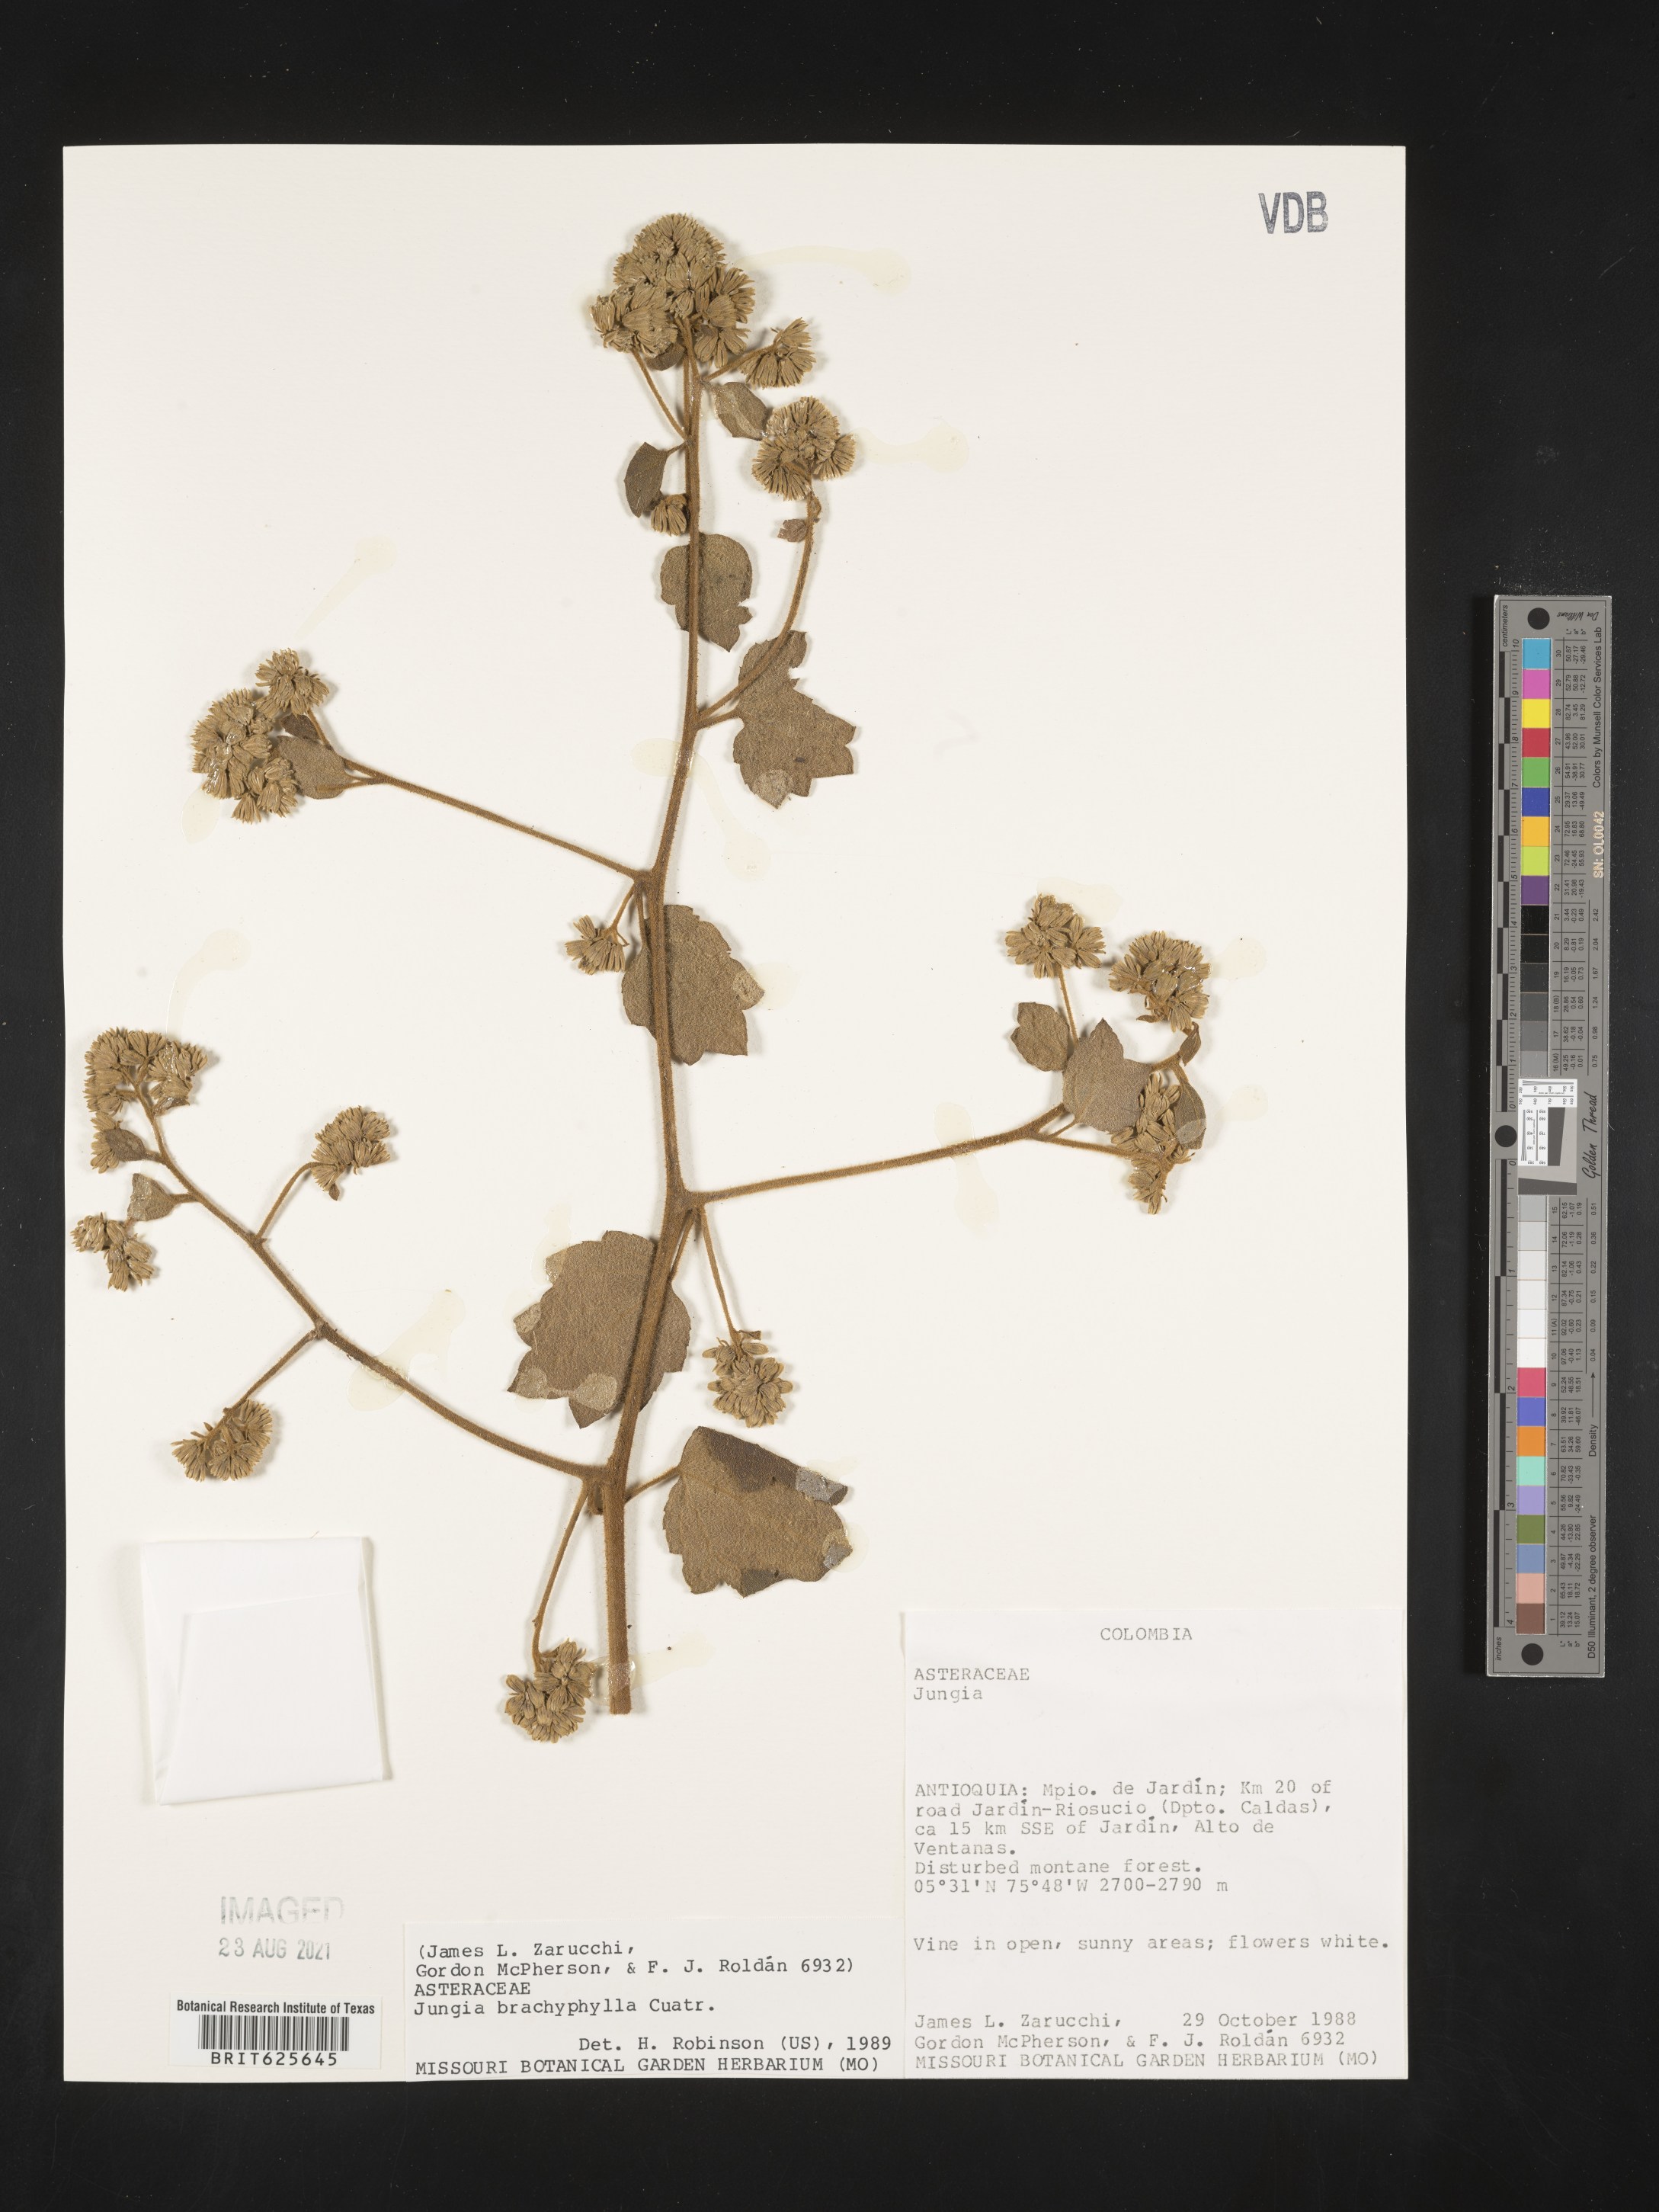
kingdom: Plantae
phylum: Tracheophyta
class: Magnoliopsida
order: Asterales
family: Asteraceae
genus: Jungia
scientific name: Jungia coarctata
